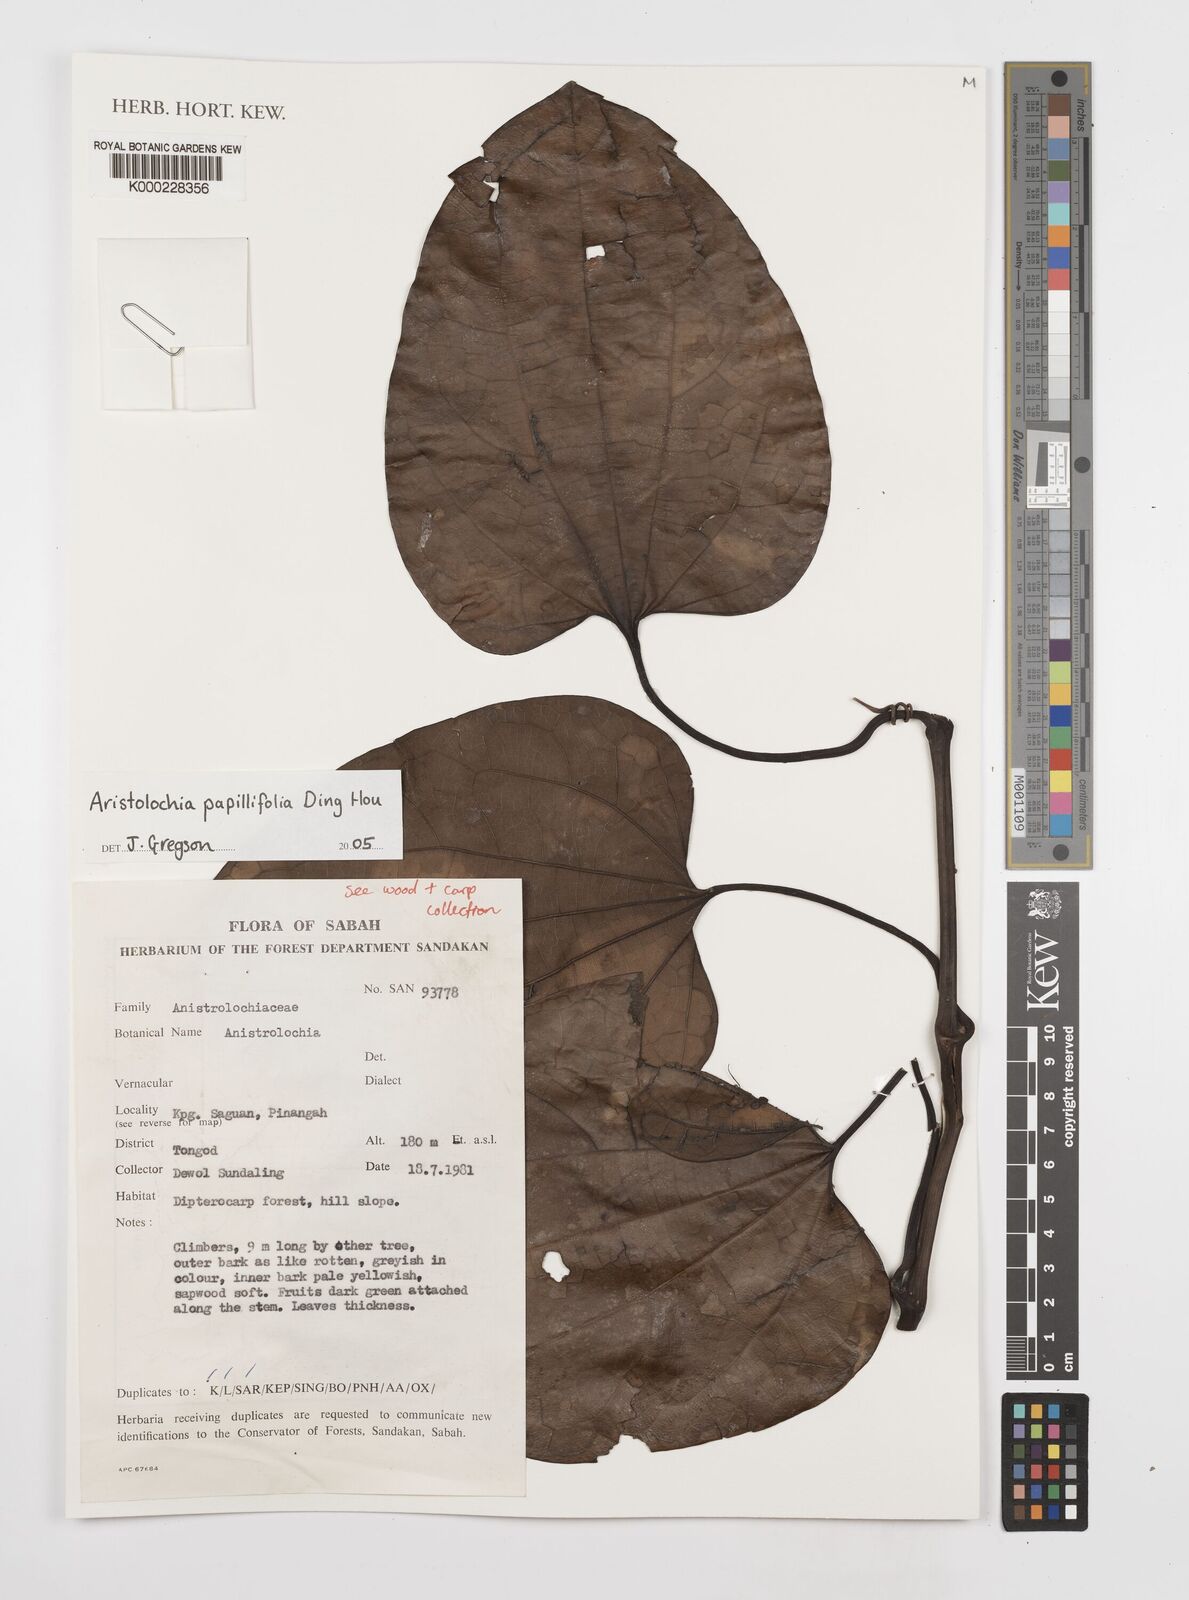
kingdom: Plantae
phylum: Tracheophyta
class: Magnoliopsida
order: Piperales
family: Aristolochiaceae
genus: Aristolochia
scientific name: Aristolochia papillifolia
